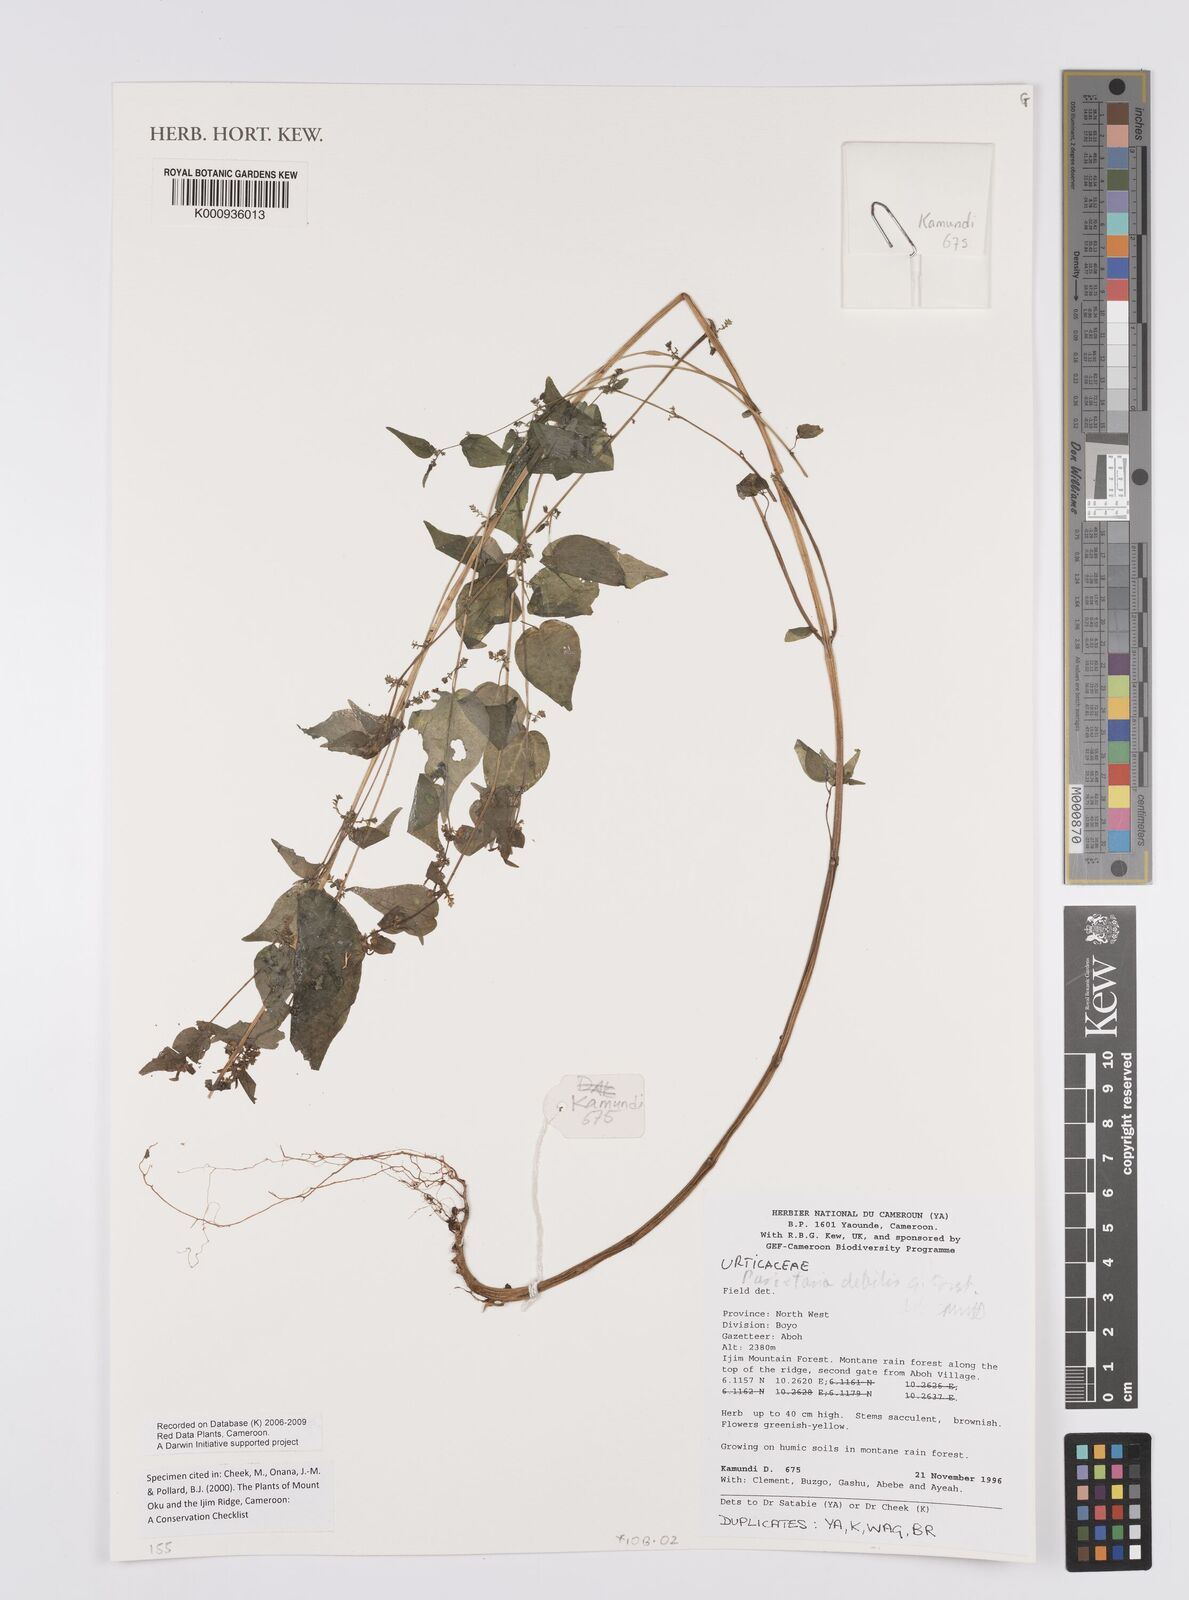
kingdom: Plantae
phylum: Tracheophyta
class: Magnoliopsida
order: Rosales
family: Urticaceae
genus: Parietaria
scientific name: Parietaria debilis
